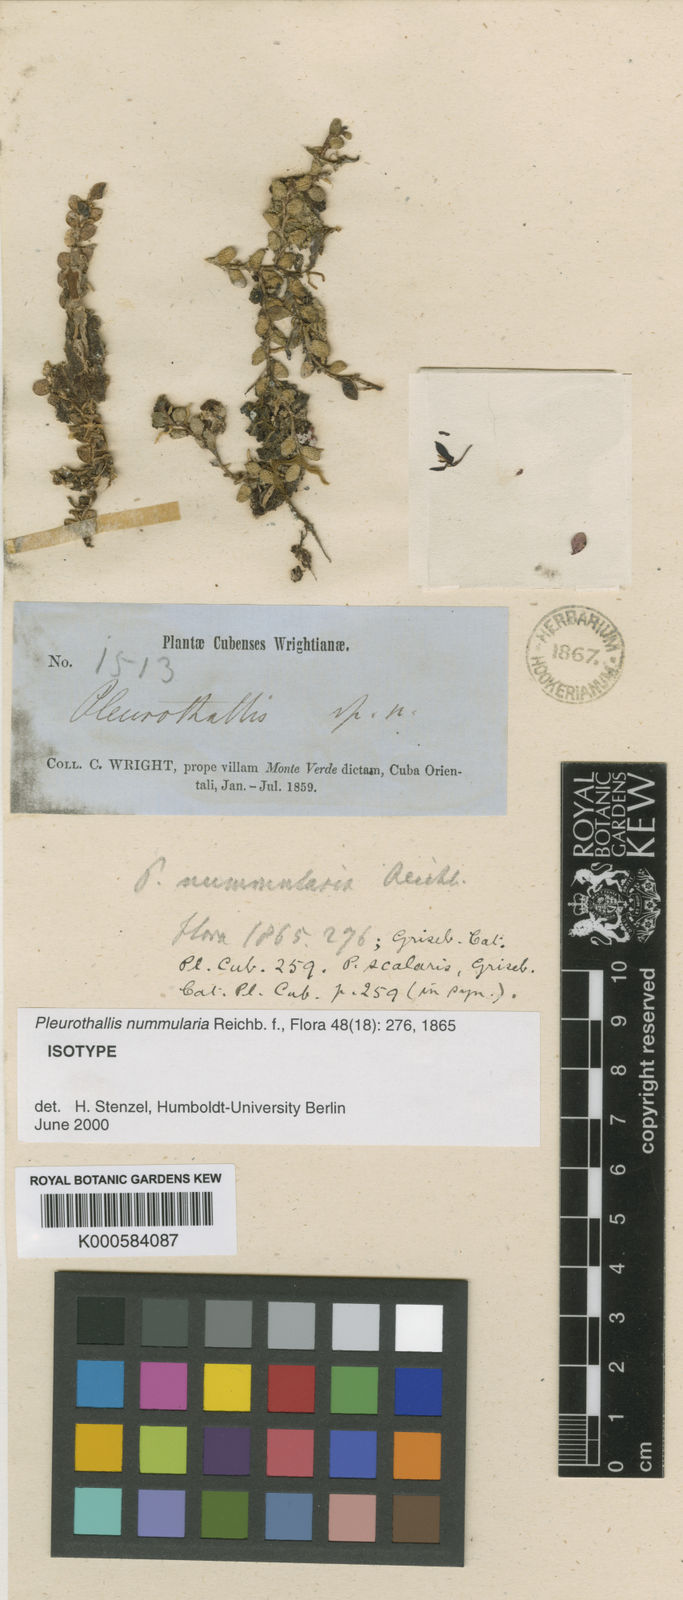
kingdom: Plantae
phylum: Tracheophyta
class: Liliopsida
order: Asparagales
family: Orchidaceae
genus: Phloeophila
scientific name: Phloeophila nummularia
